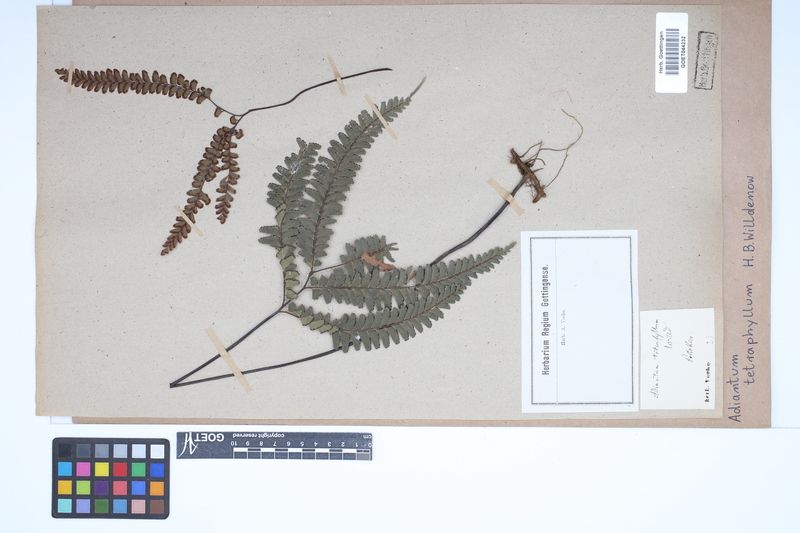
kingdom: Plantae
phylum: Tracheophyta
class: Polypodiopsida
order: Polypodiales
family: Pteridaceae
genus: Adiantum
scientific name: Adiantum tetraphyllum
